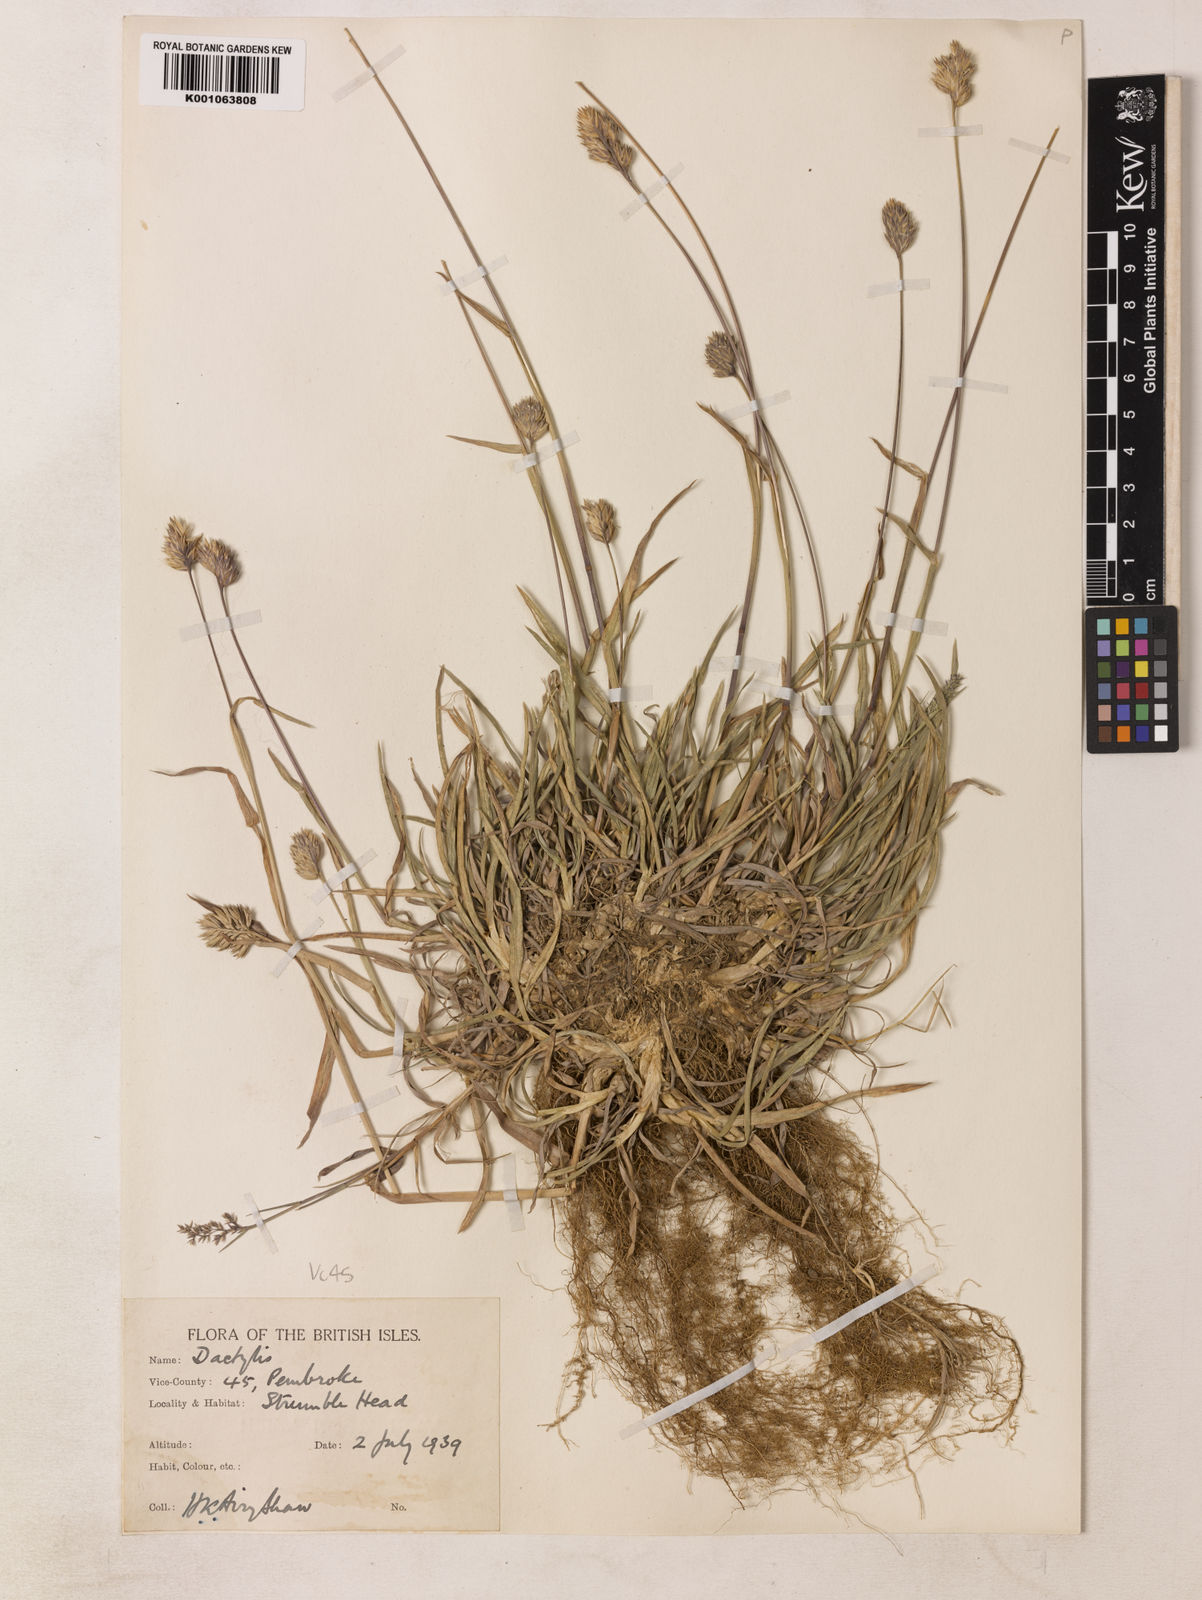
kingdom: Plantae
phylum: Tracheophyta
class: Liliopsida
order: Poales
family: Poaceae
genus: Dactylis
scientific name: Dactylis glomerata
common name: Orchardgrass
